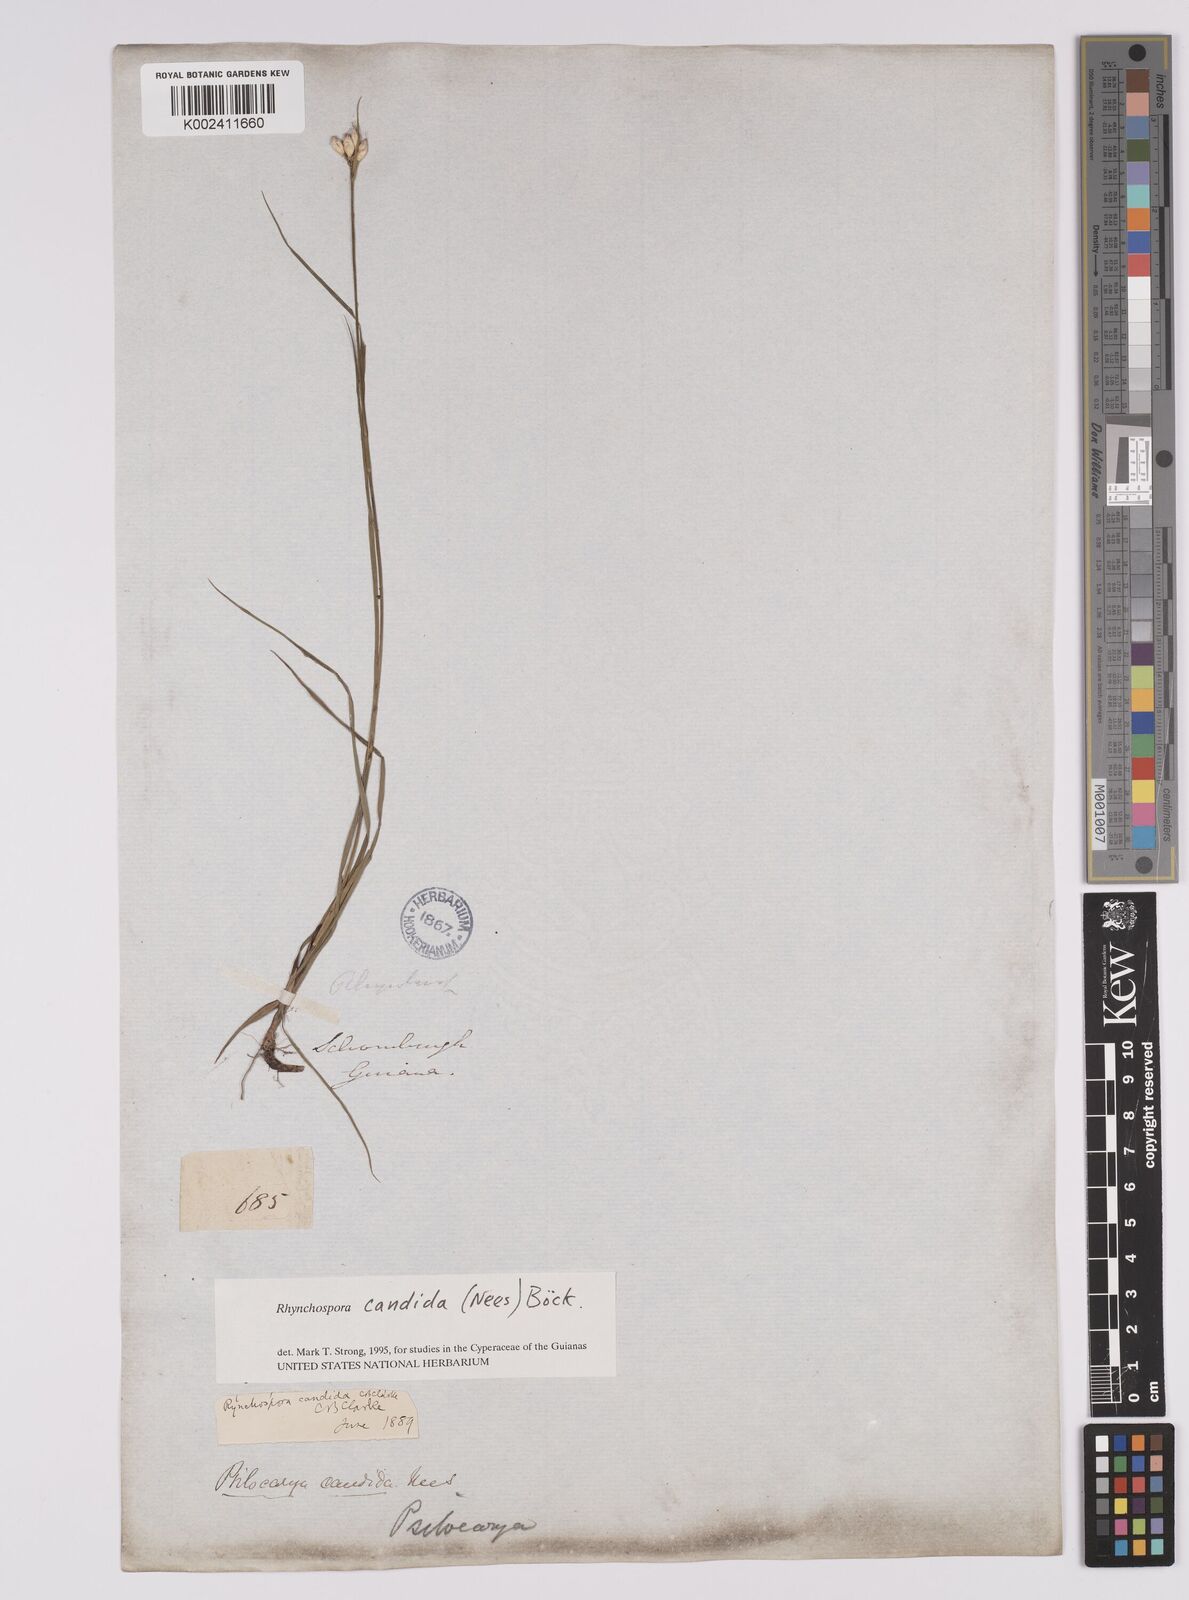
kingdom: Plantae
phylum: Tracheophyta
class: Liliopsida
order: Poales
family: Cyperaceae
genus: Rhynchospora
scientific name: Rhynchospora candida
